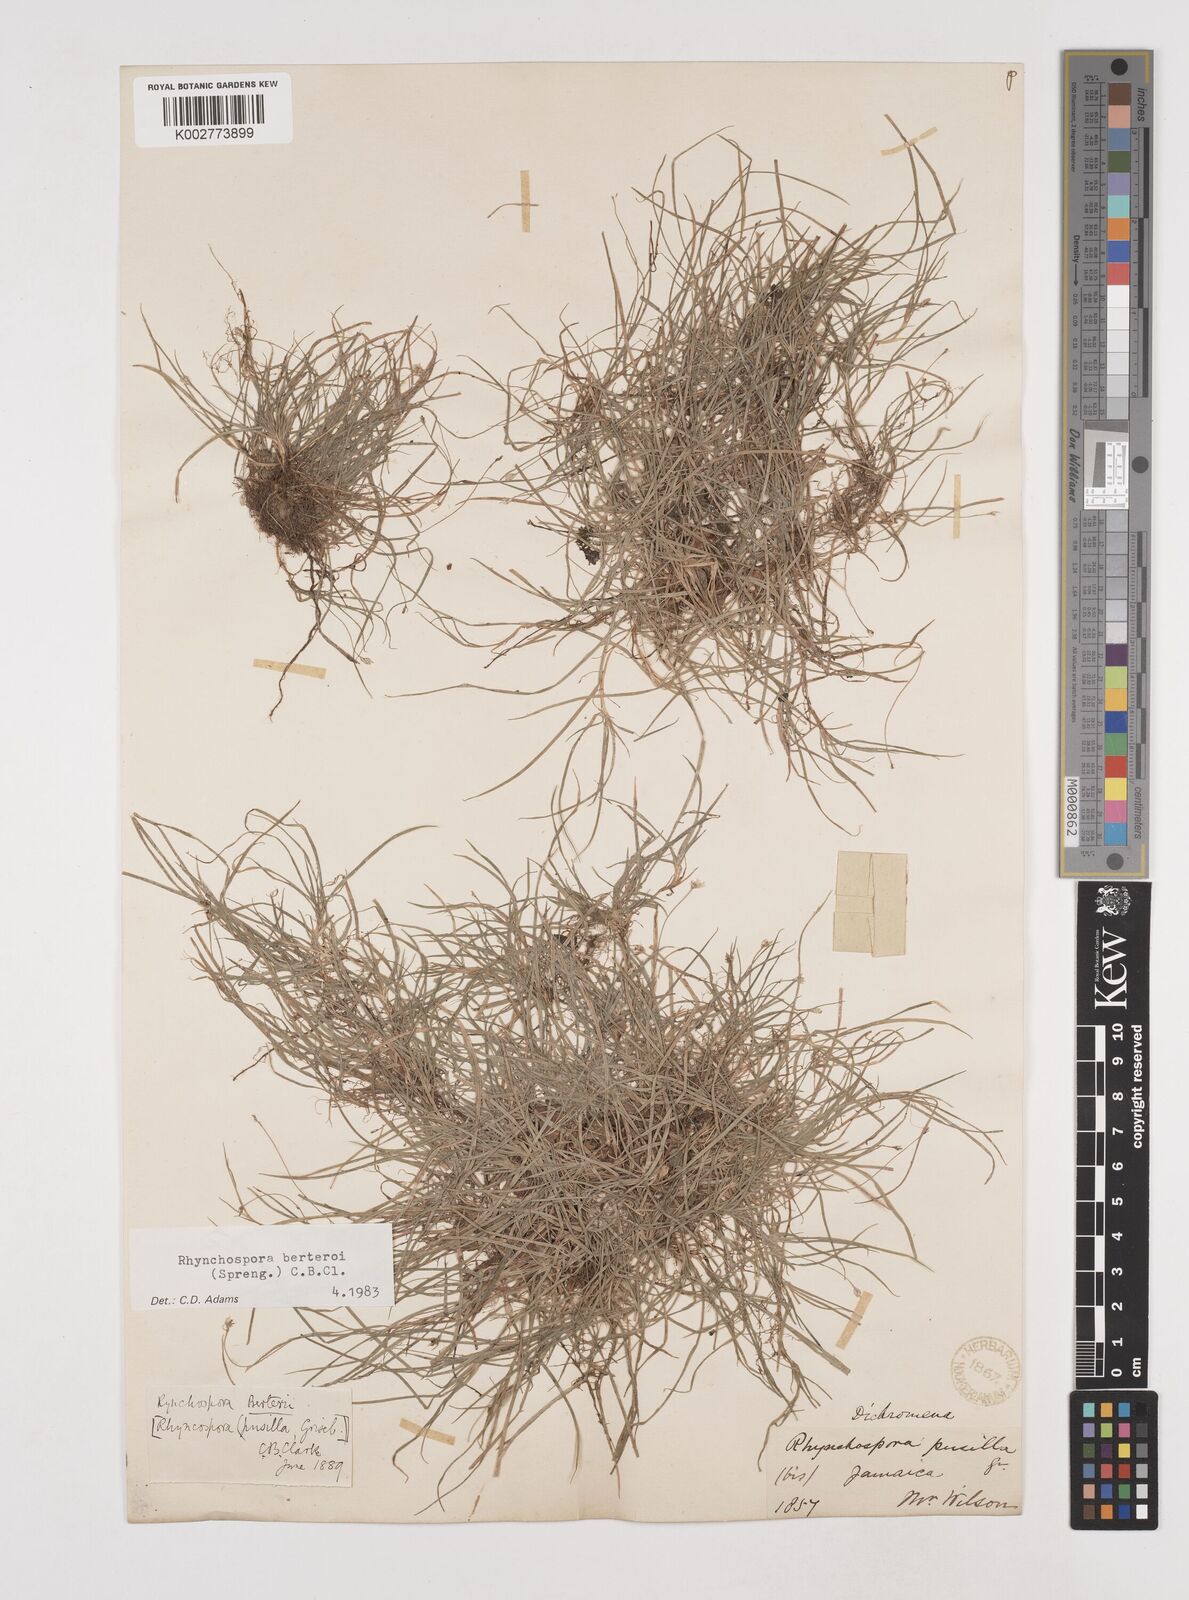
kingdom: Plantae
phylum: Tracheophyta
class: Liliopsida
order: Poales
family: Cyperaceae
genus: Rhynchospora
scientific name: Rhynchospora berteroi
